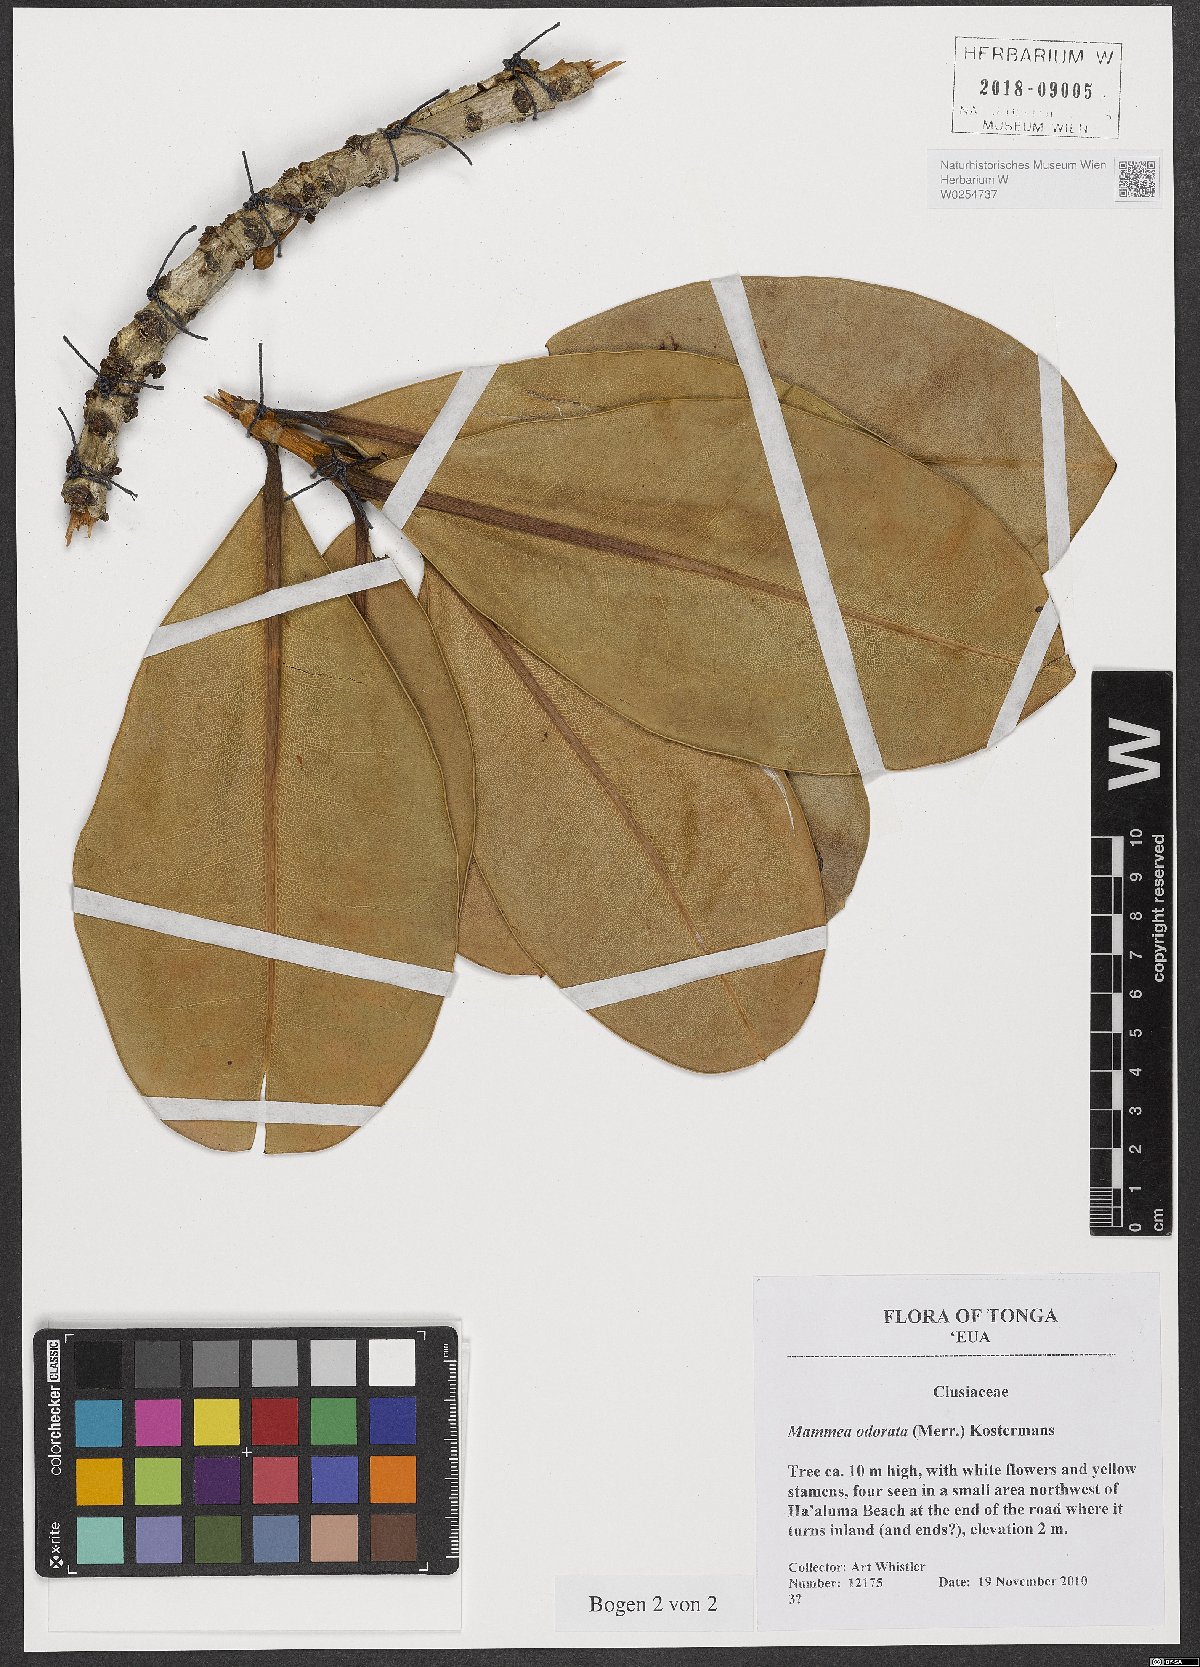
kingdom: Plantae
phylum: Tracheophyta
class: Magnoliopsida
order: Malpighiales
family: Calophyllaceae
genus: Mammea
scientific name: Mammea odorata
